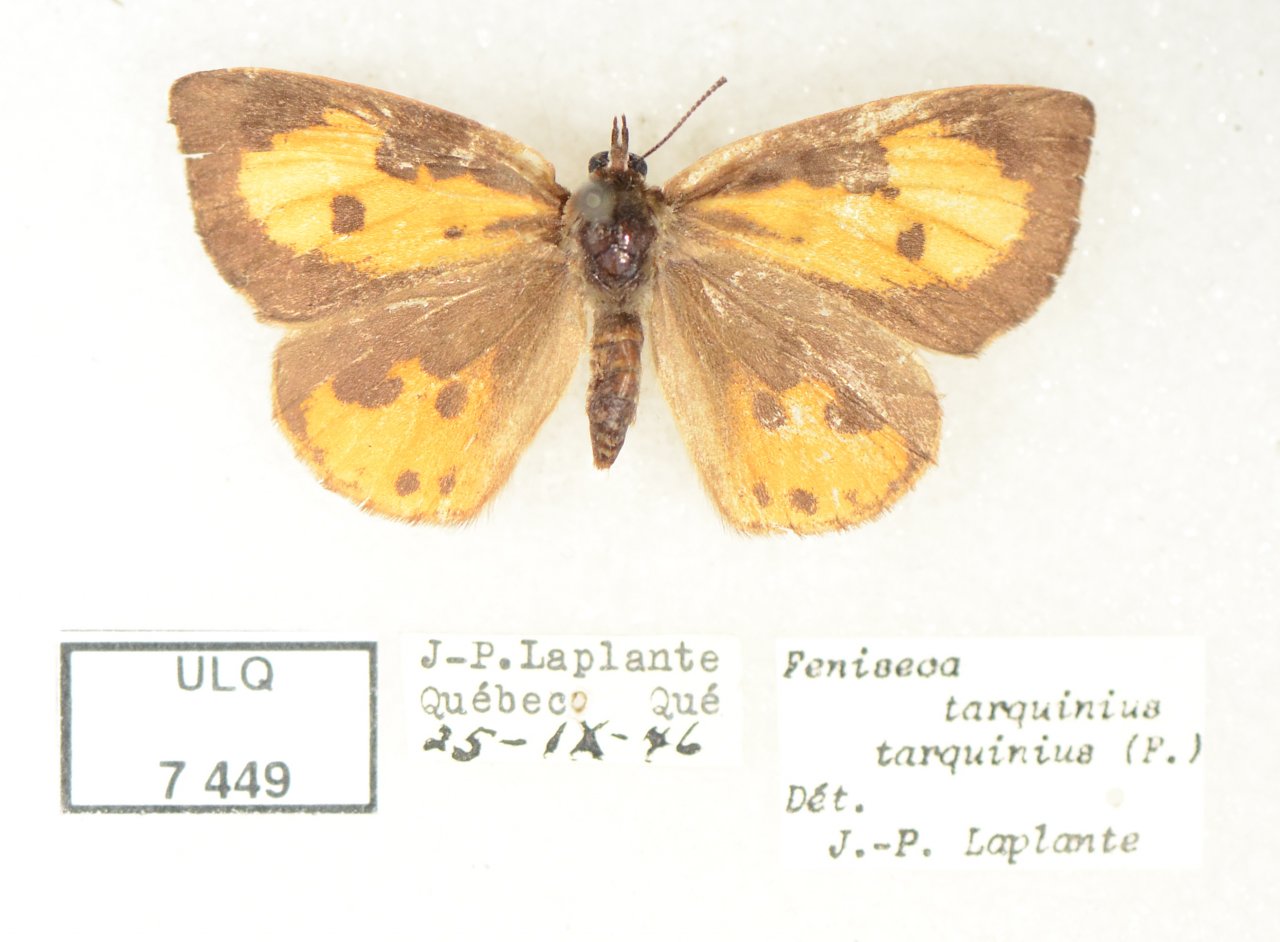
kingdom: Animalia
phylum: Arthropoda
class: Insecta
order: Lepidoptera
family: Lycaenidae
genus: Feniseca
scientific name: Feniseca tarquinius
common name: Harvester
